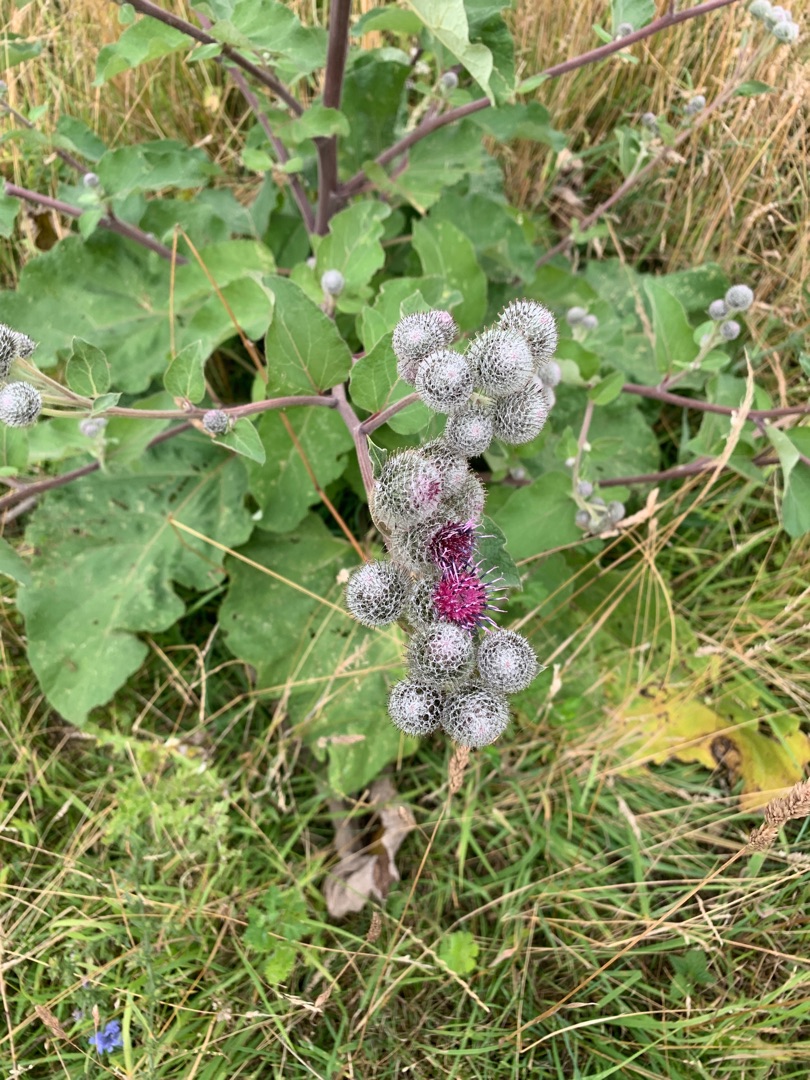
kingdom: Plantae
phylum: Tracheophyta
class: Magnoliopsida
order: Asterales
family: Asteraceae
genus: Arctium
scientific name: Arctium tomentosum
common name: Filtet burre
